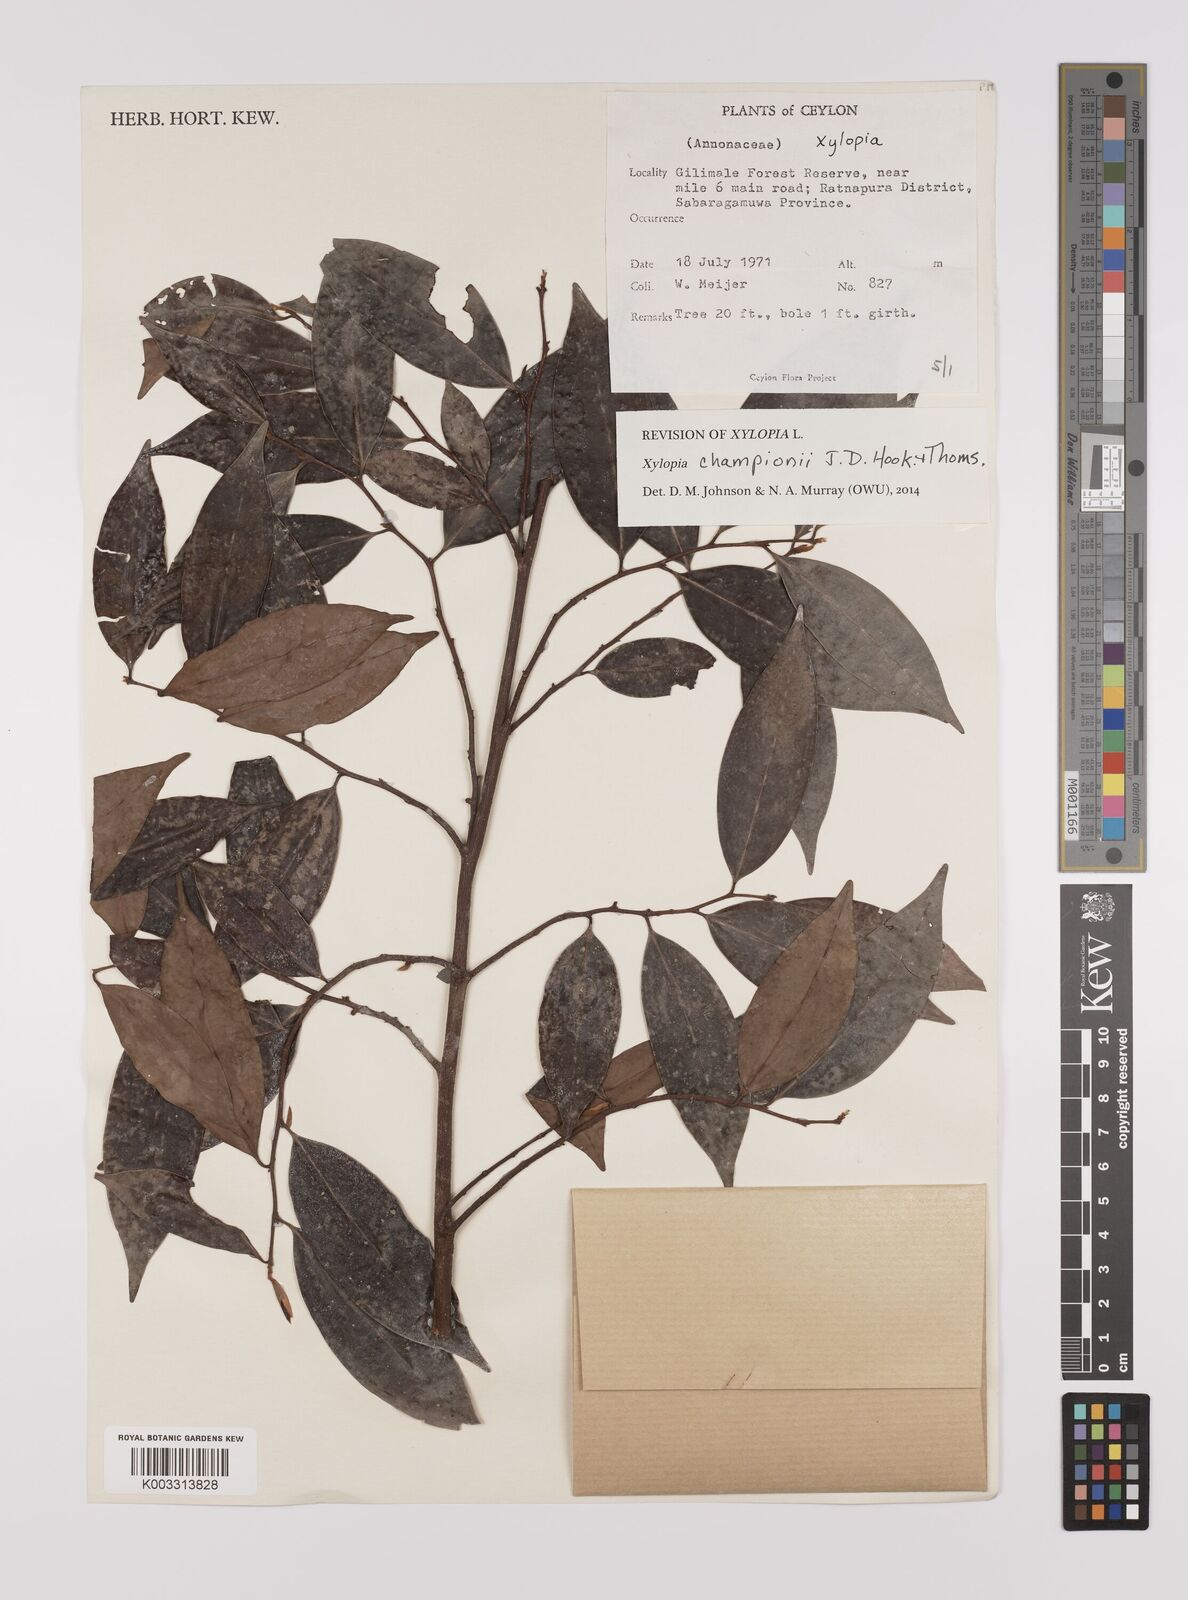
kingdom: Plantae
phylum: Tracheophyta
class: Magnoliopsida
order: Magnoliales
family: Annonaceae
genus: Xylopia
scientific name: Xylopia championii
